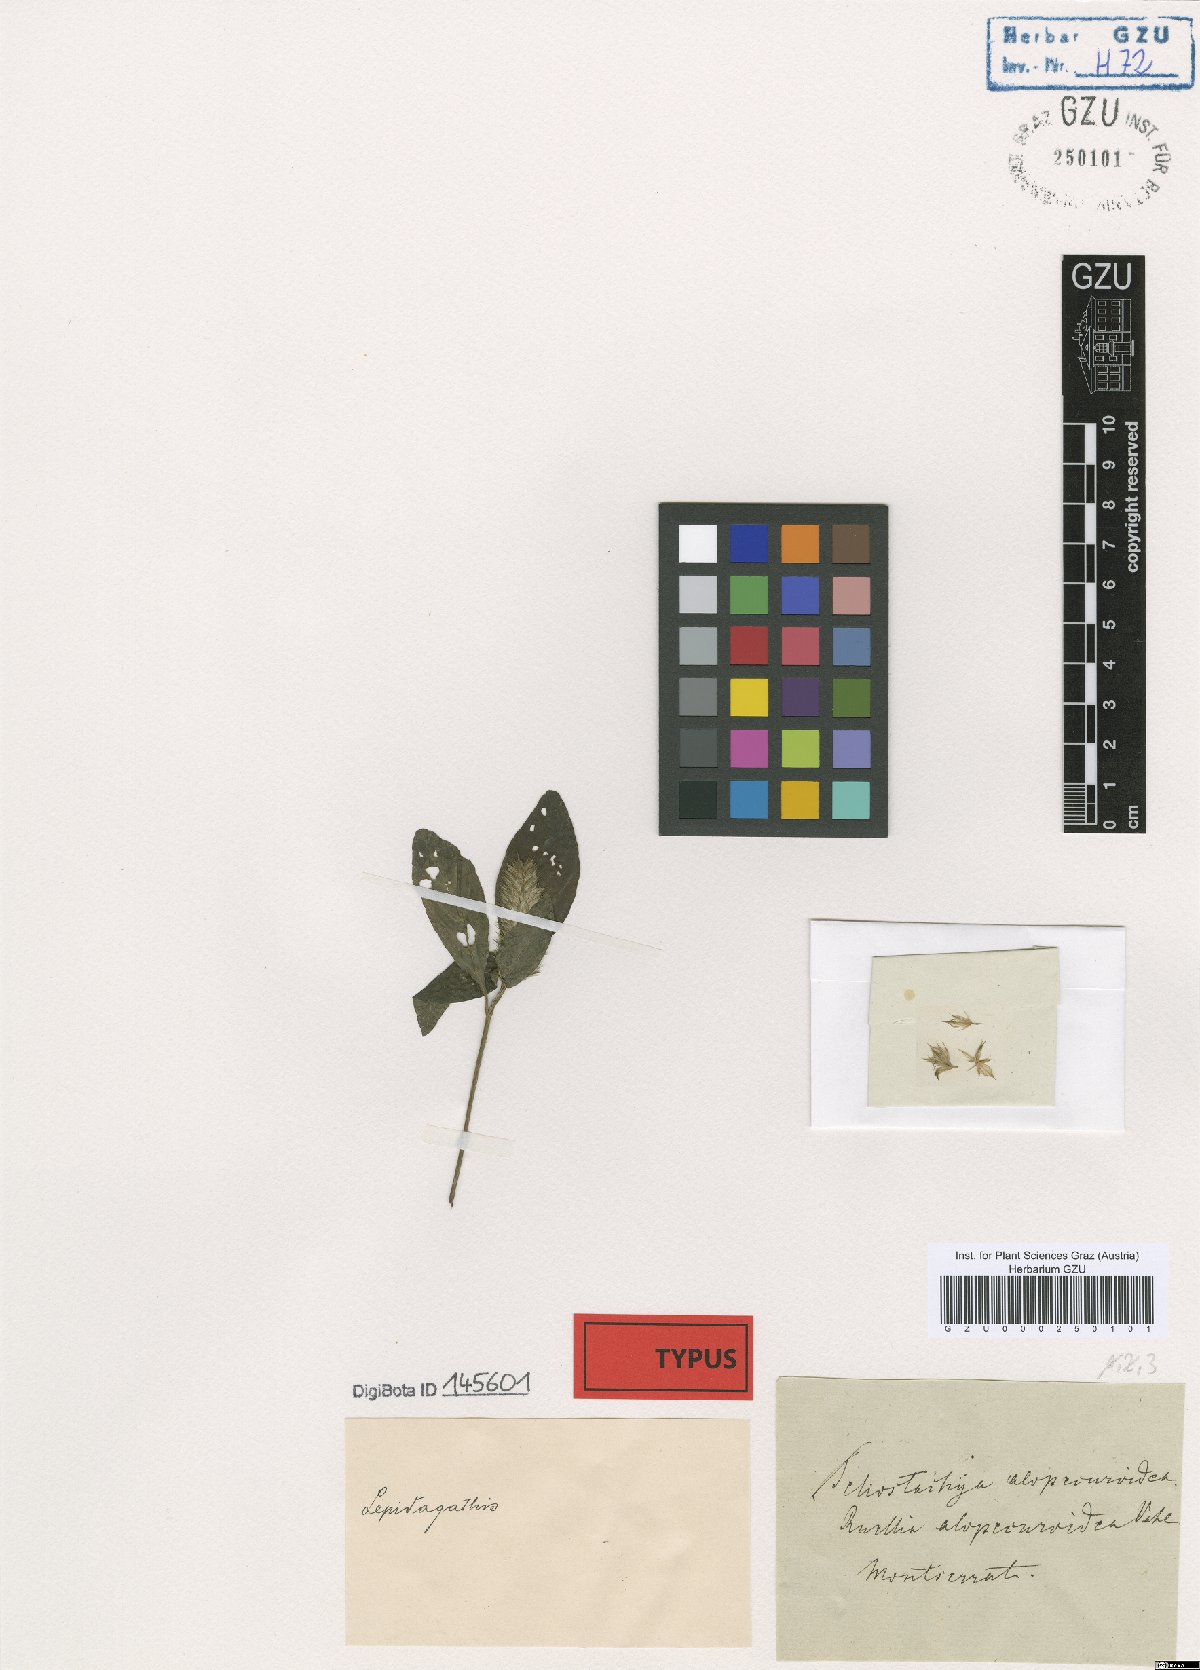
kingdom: Plantae
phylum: Tracheophyta
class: Magnoliopsida
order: Lamiales
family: Acanthaceae
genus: Lepidagathis
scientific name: Lepidagathis alopecuroidea
